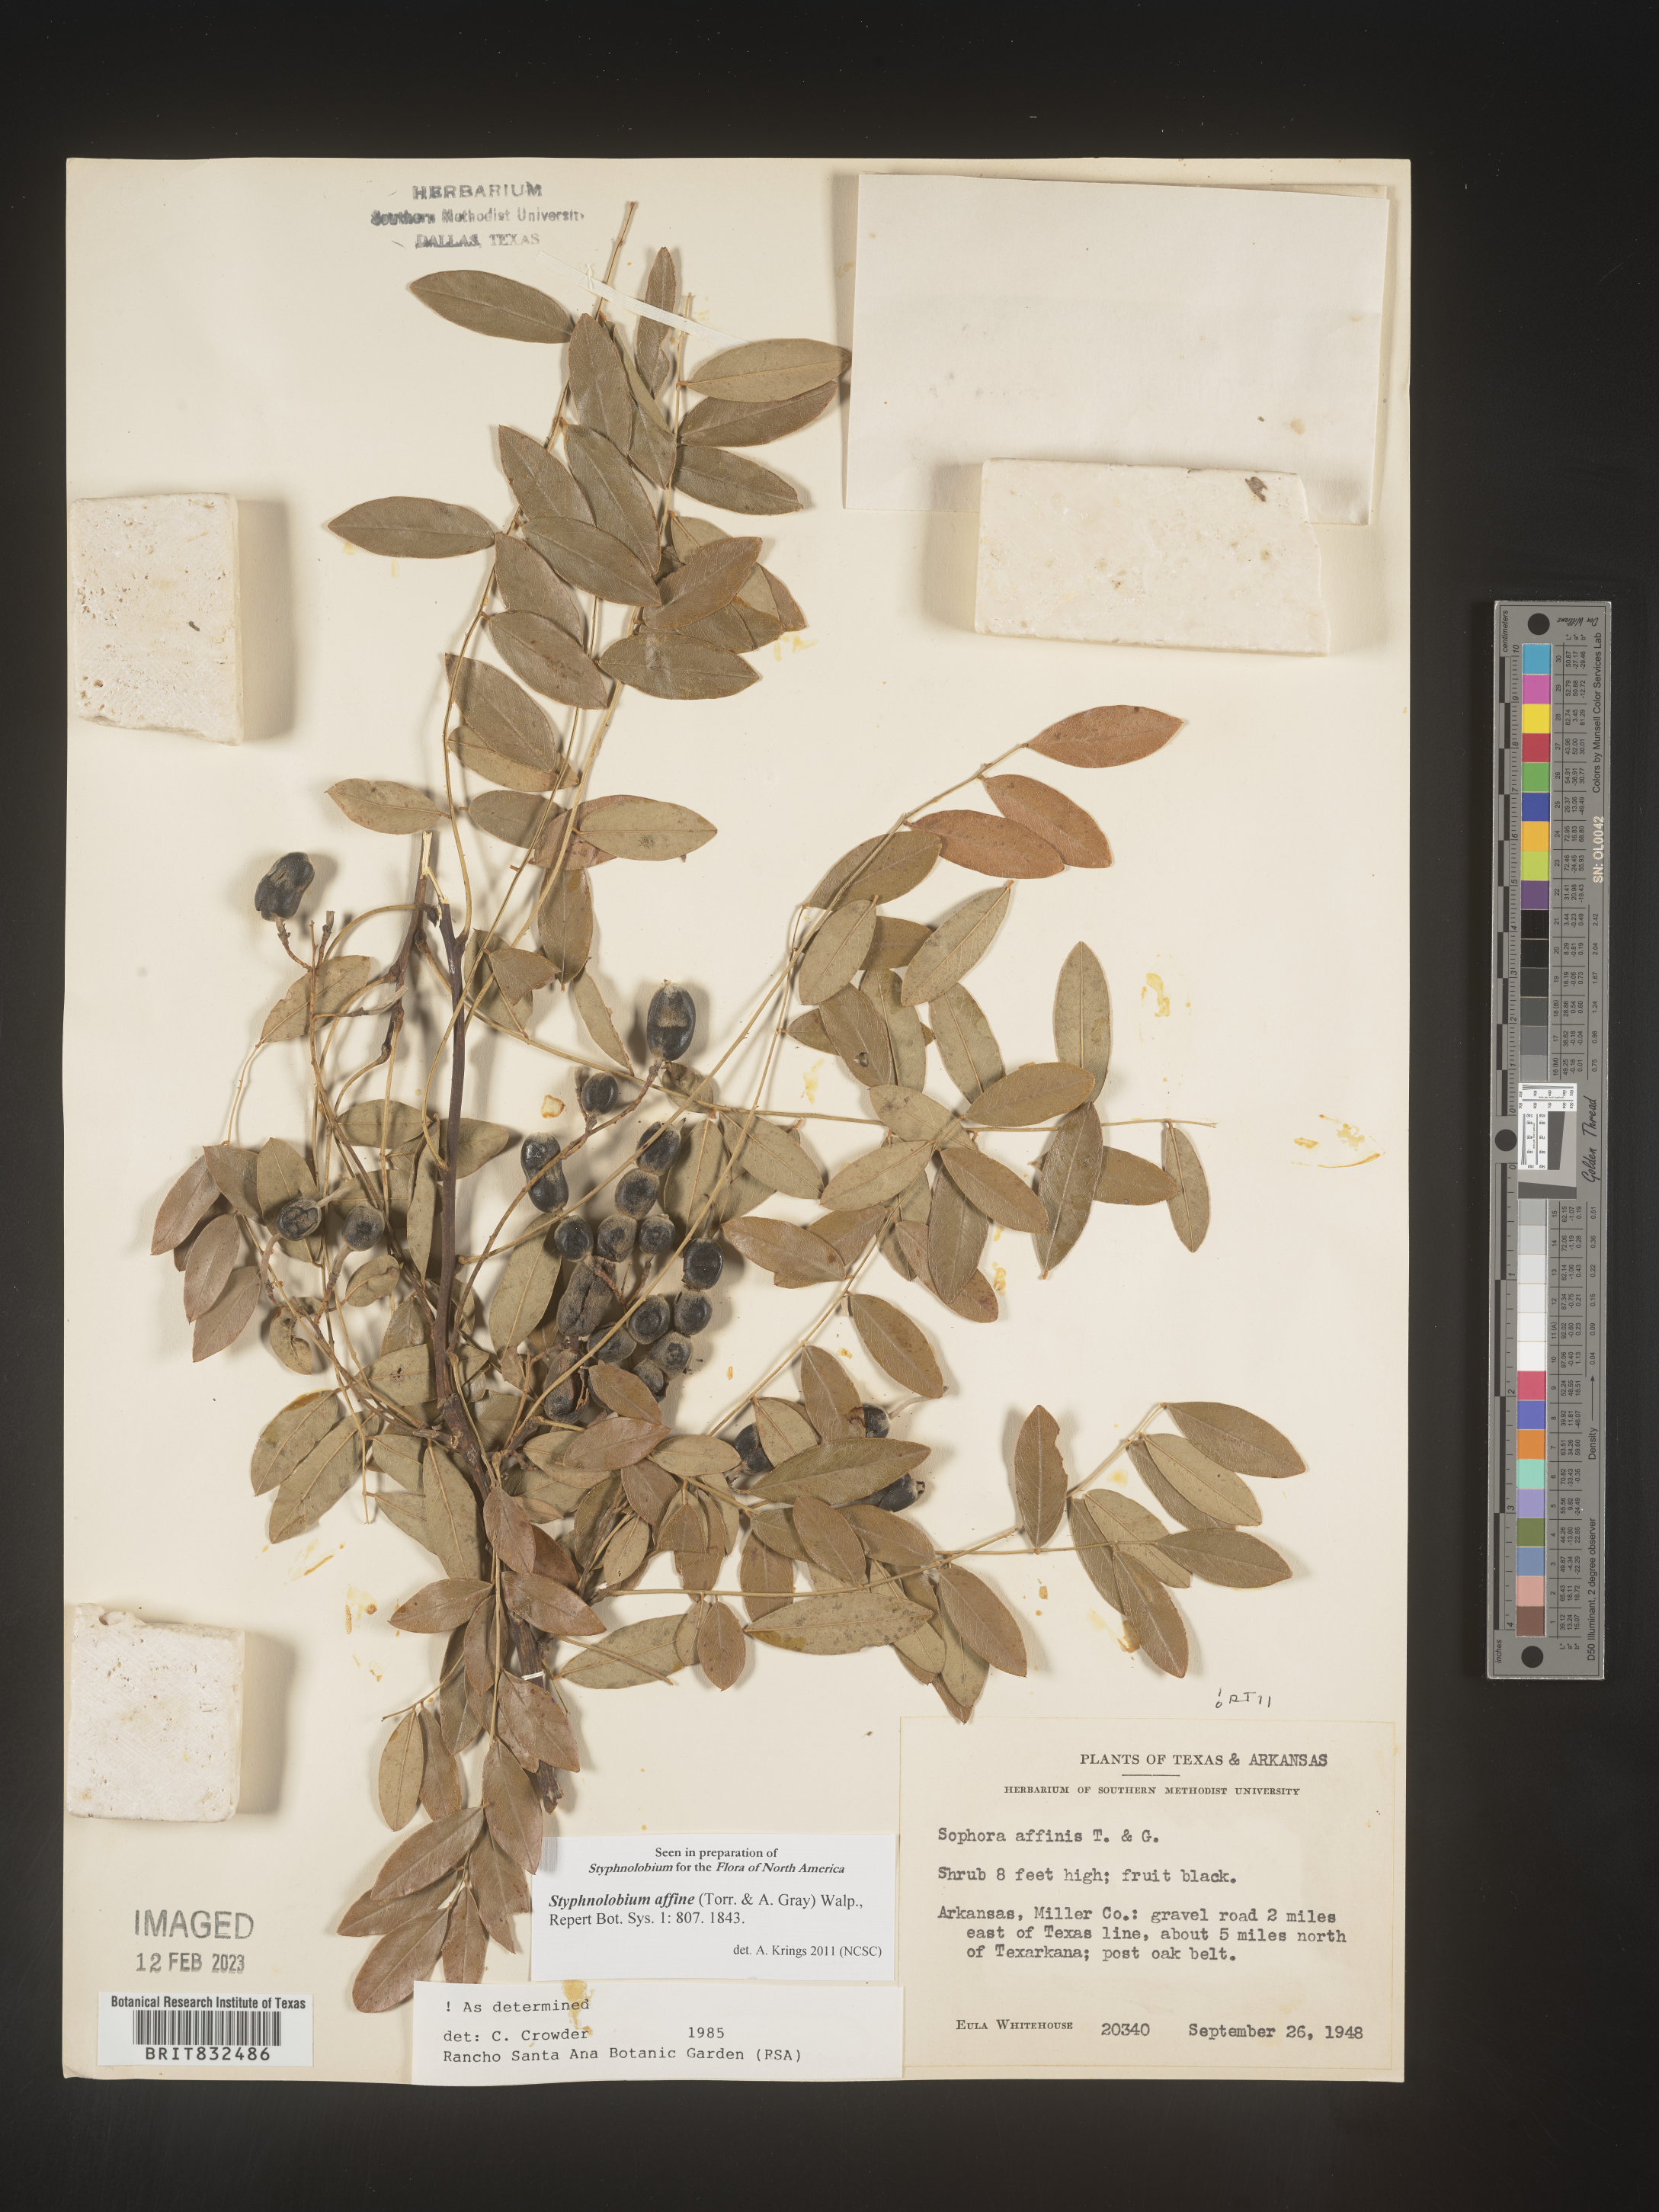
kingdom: Plantae
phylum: Tracheophyta
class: Magnoliopsida
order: Fabales
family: Fabaceae
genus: Styphnolobium
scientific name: Styphnolobium
